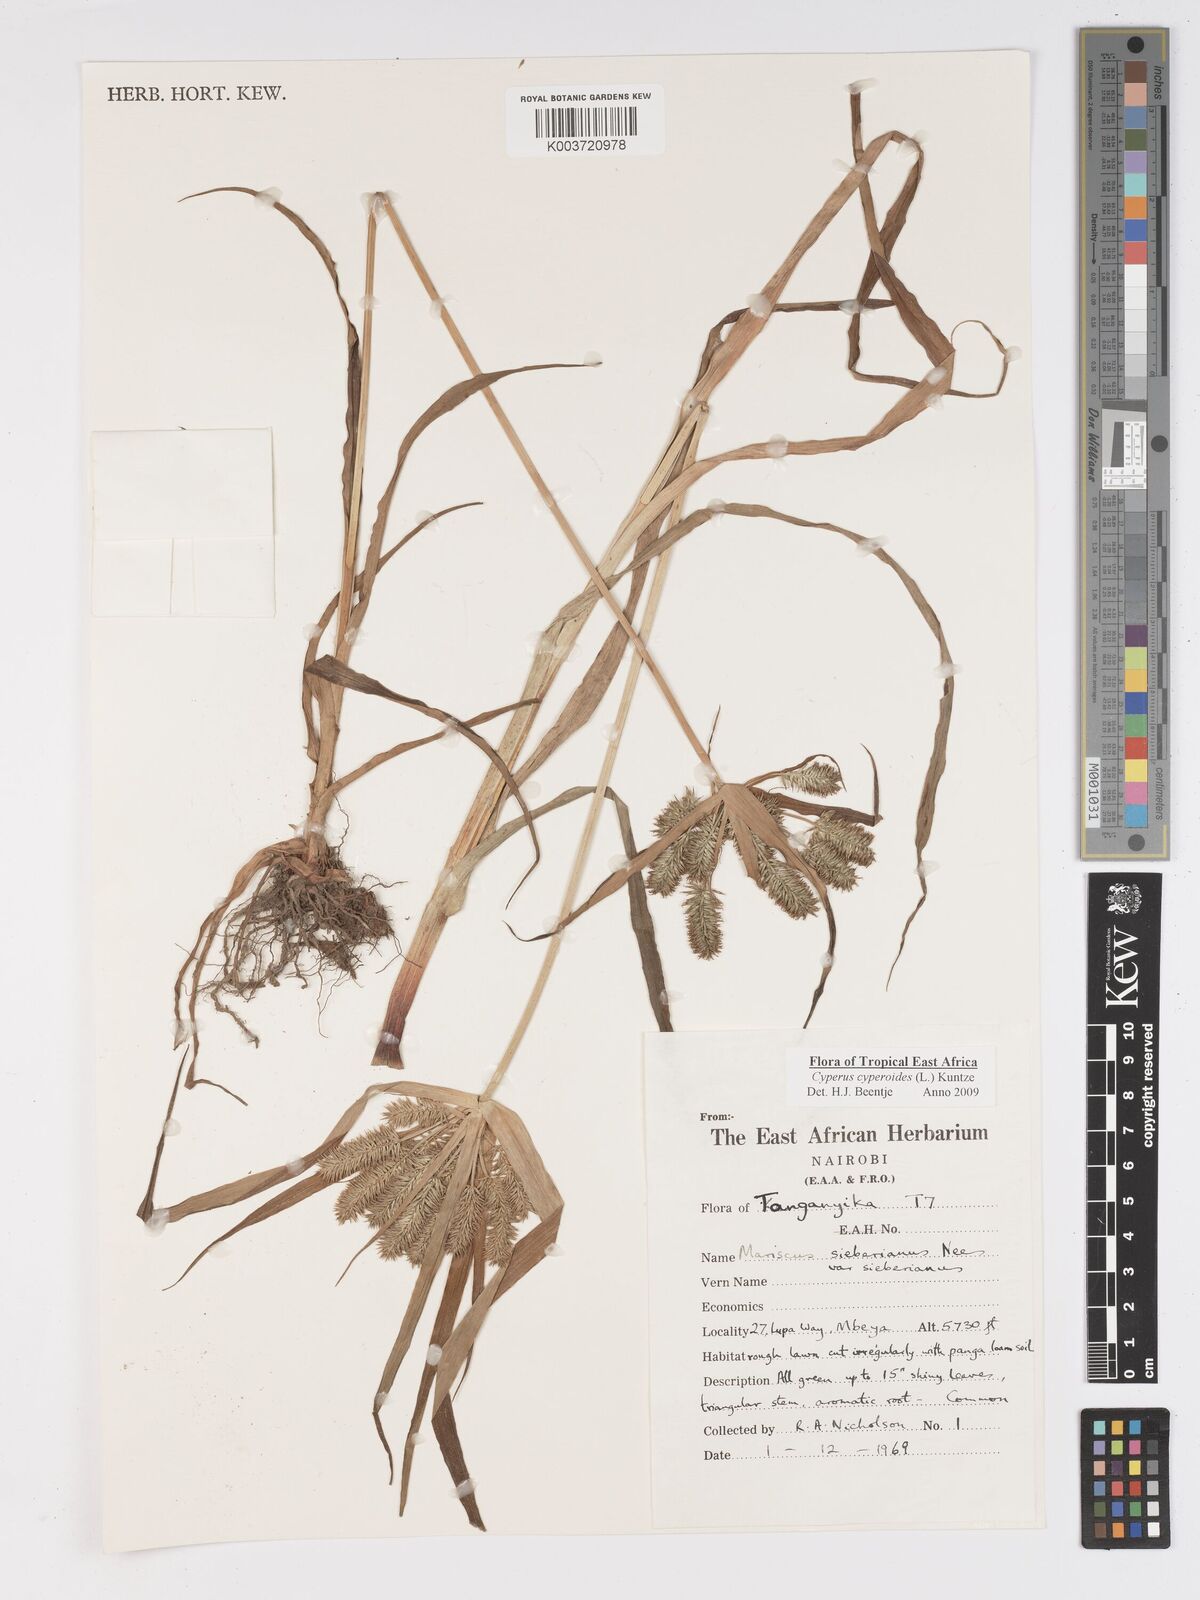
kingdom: Plantae
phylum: Tracheophyta
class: Liliopsida
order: Poales
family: Cyperaceae
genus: Cyperus
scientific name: Cyperus cyperoides
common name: Pacific island flat sedge
